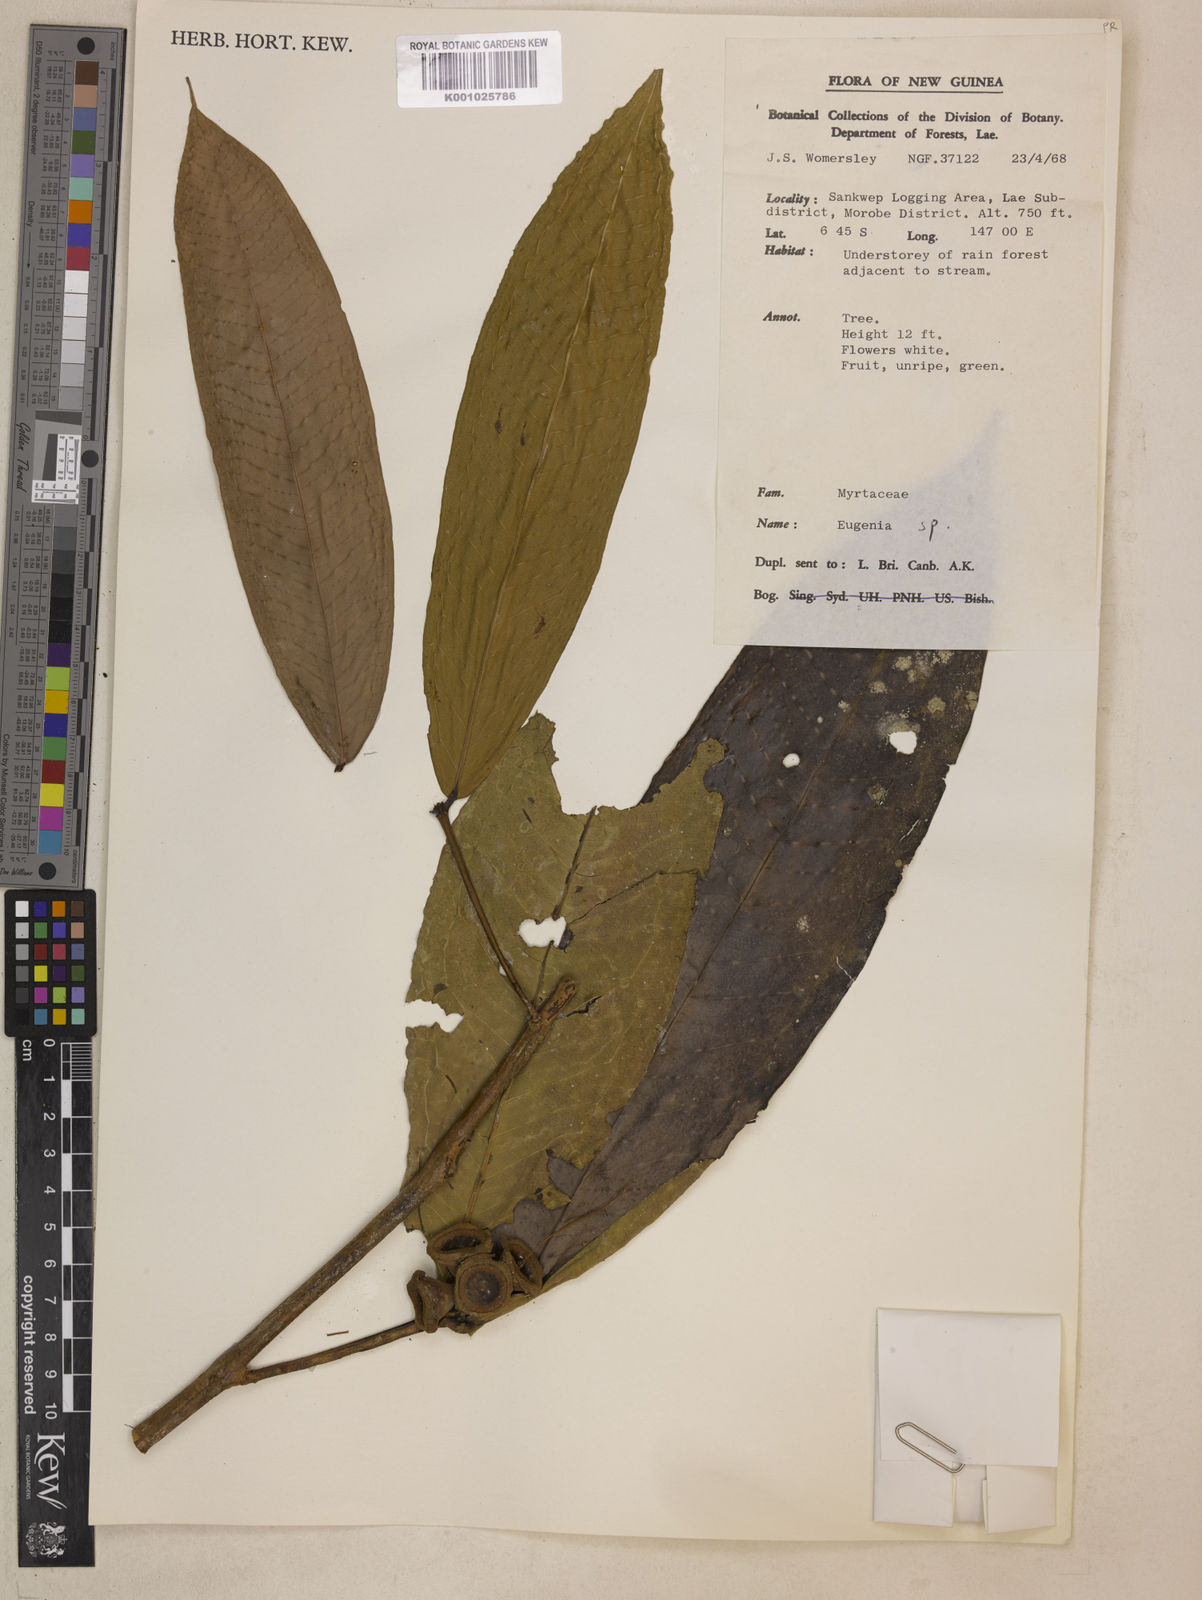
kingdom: Plantae
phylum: Tracheophyta
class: Magnoliopsida
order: Myrtales
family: Myrtaceae
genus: Syzygium
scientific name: Syzygium megalospermum
